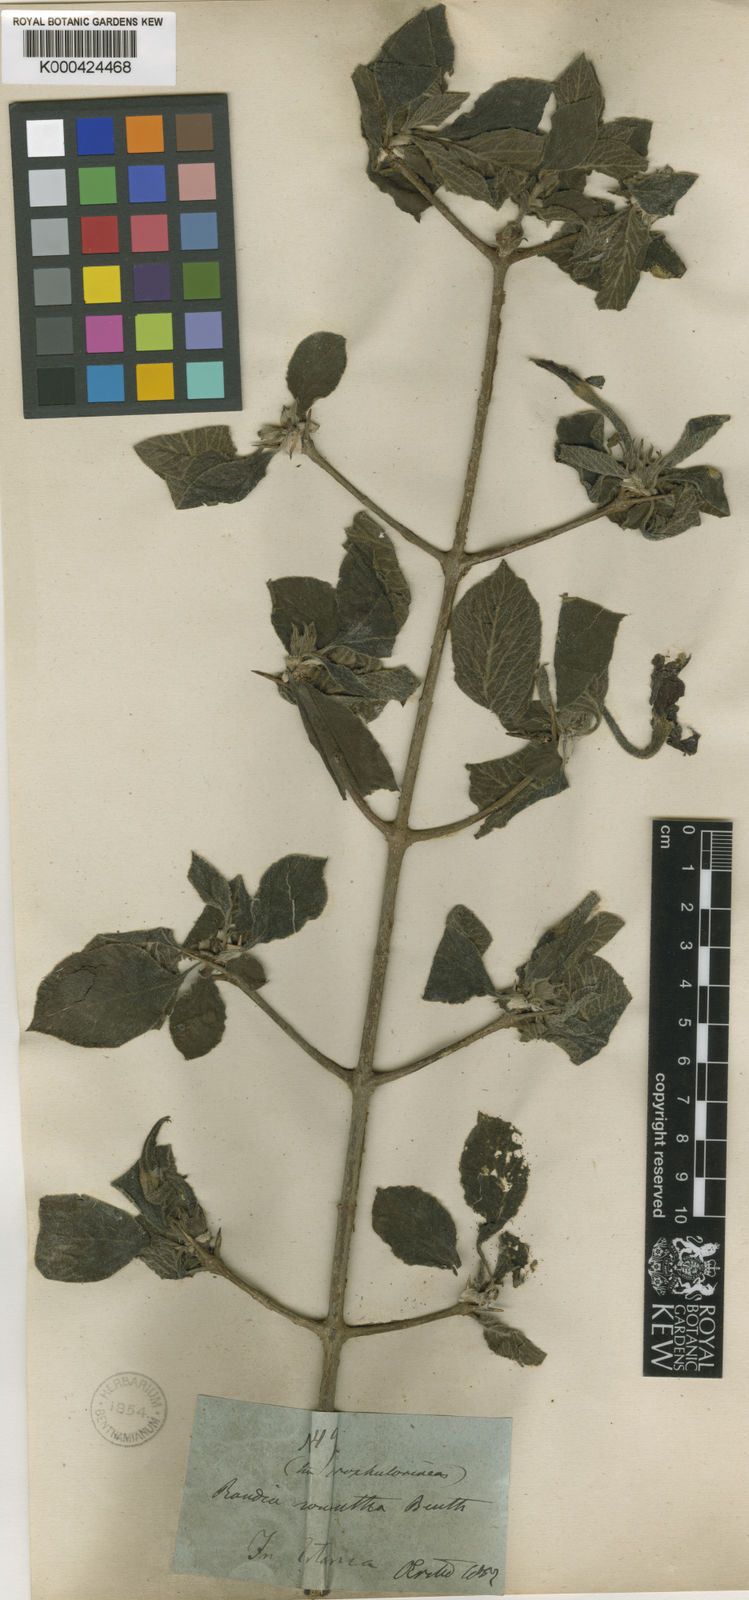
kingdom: Plantae
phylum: Tracheophyta
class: Magnoliopsida
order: Gentianales
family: Rubiaceae
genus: Randia
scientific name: Randia monantha
